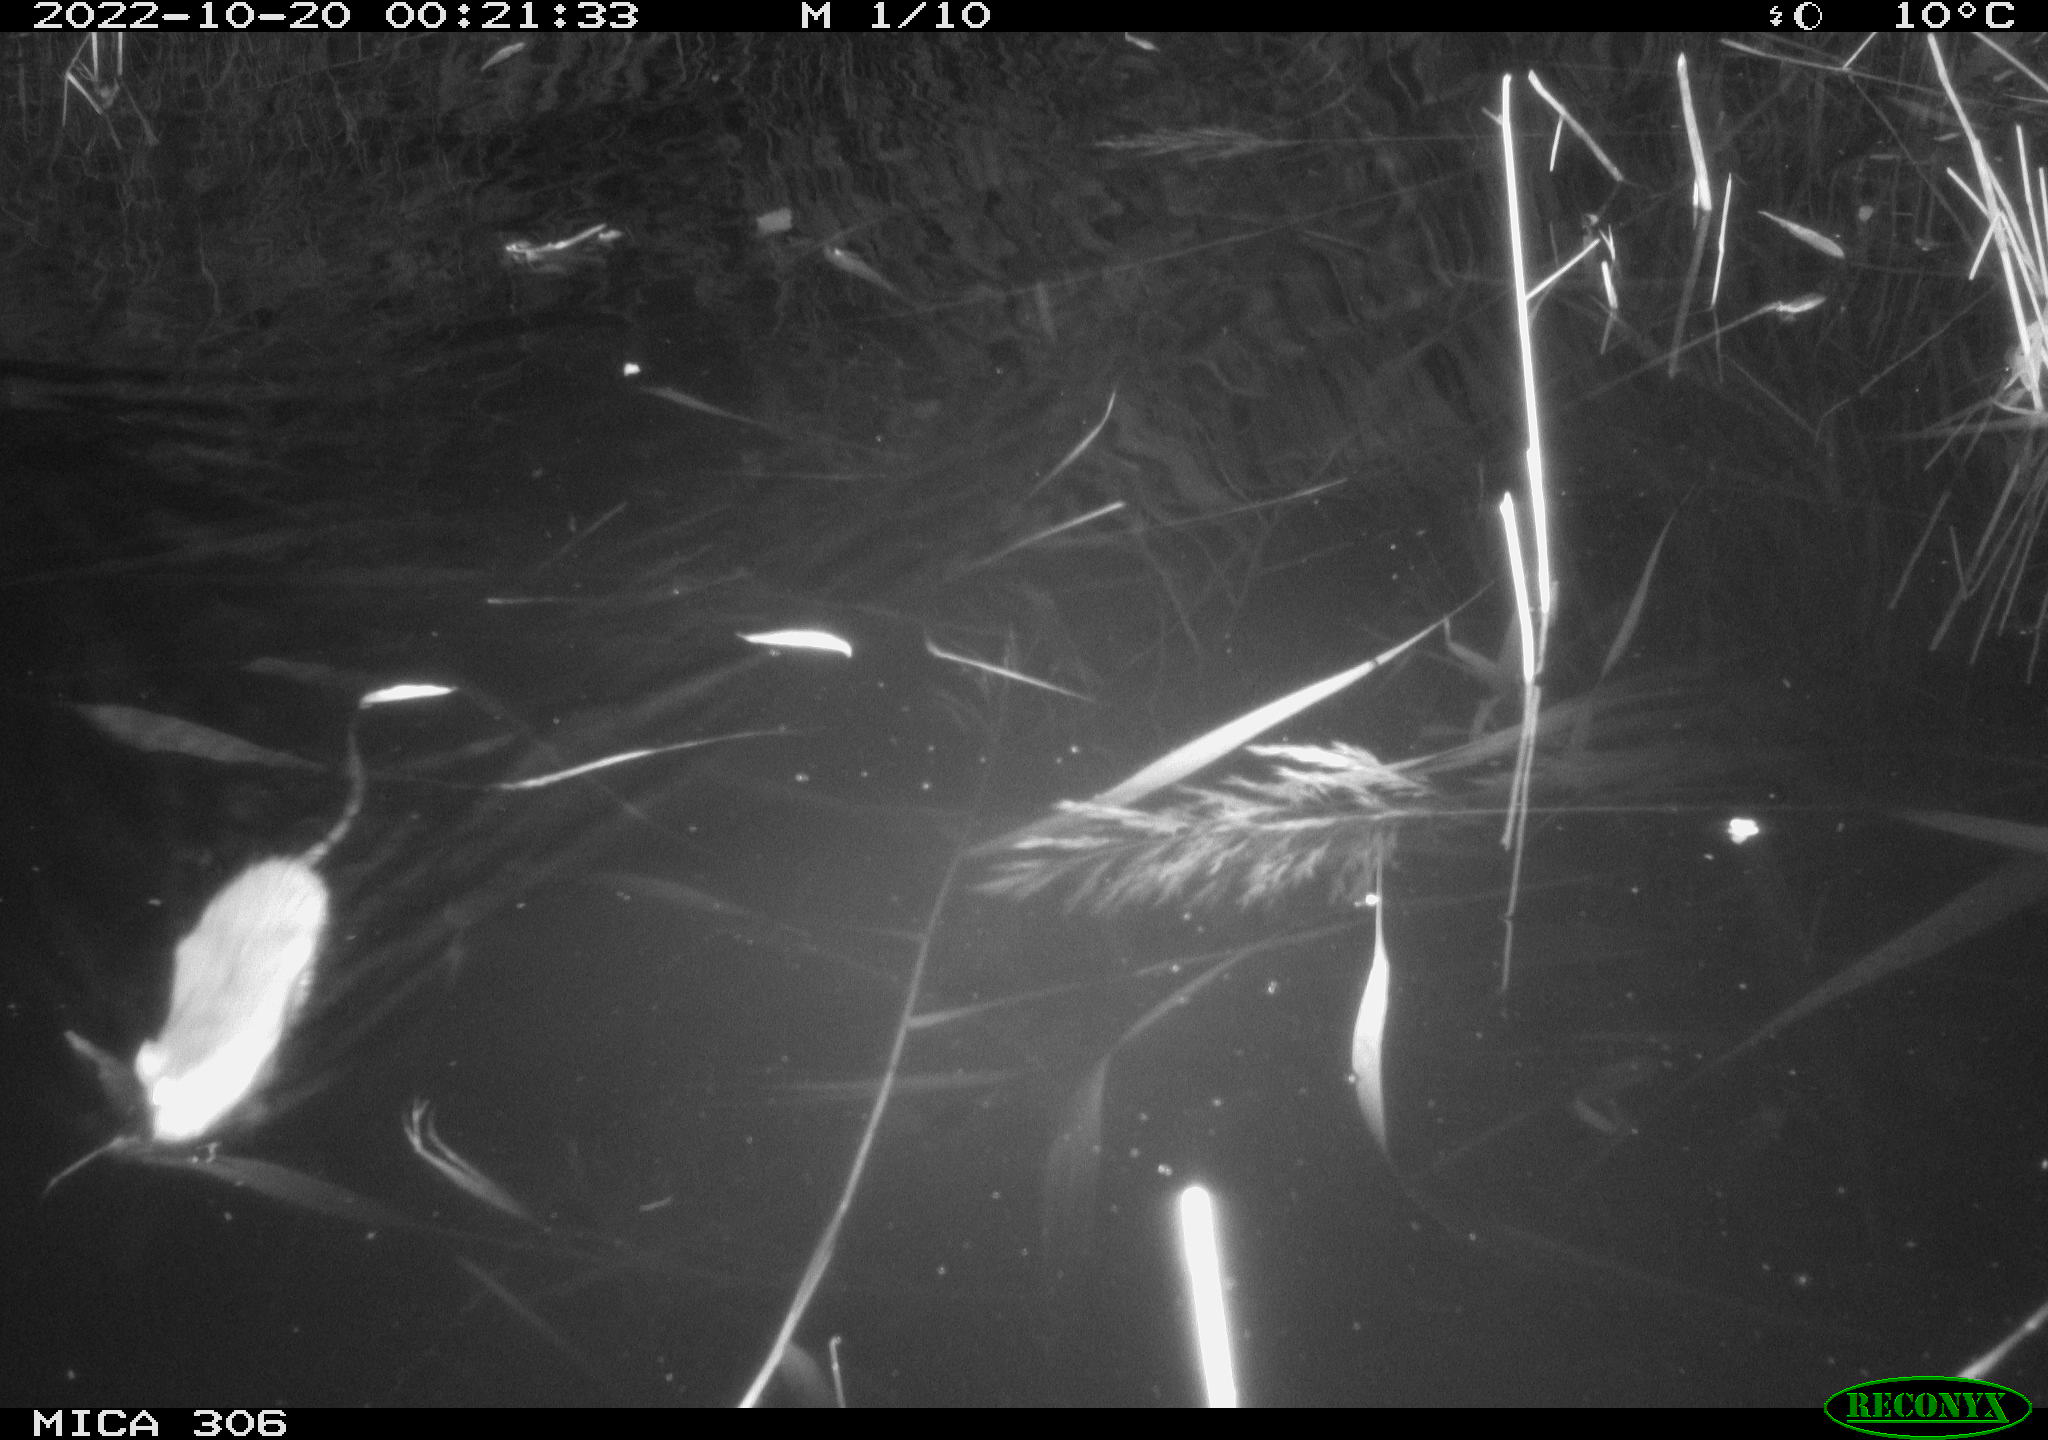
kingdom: Animalia
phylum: Chordata
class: Mammalia
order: Rodentia
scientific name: Rodentia
